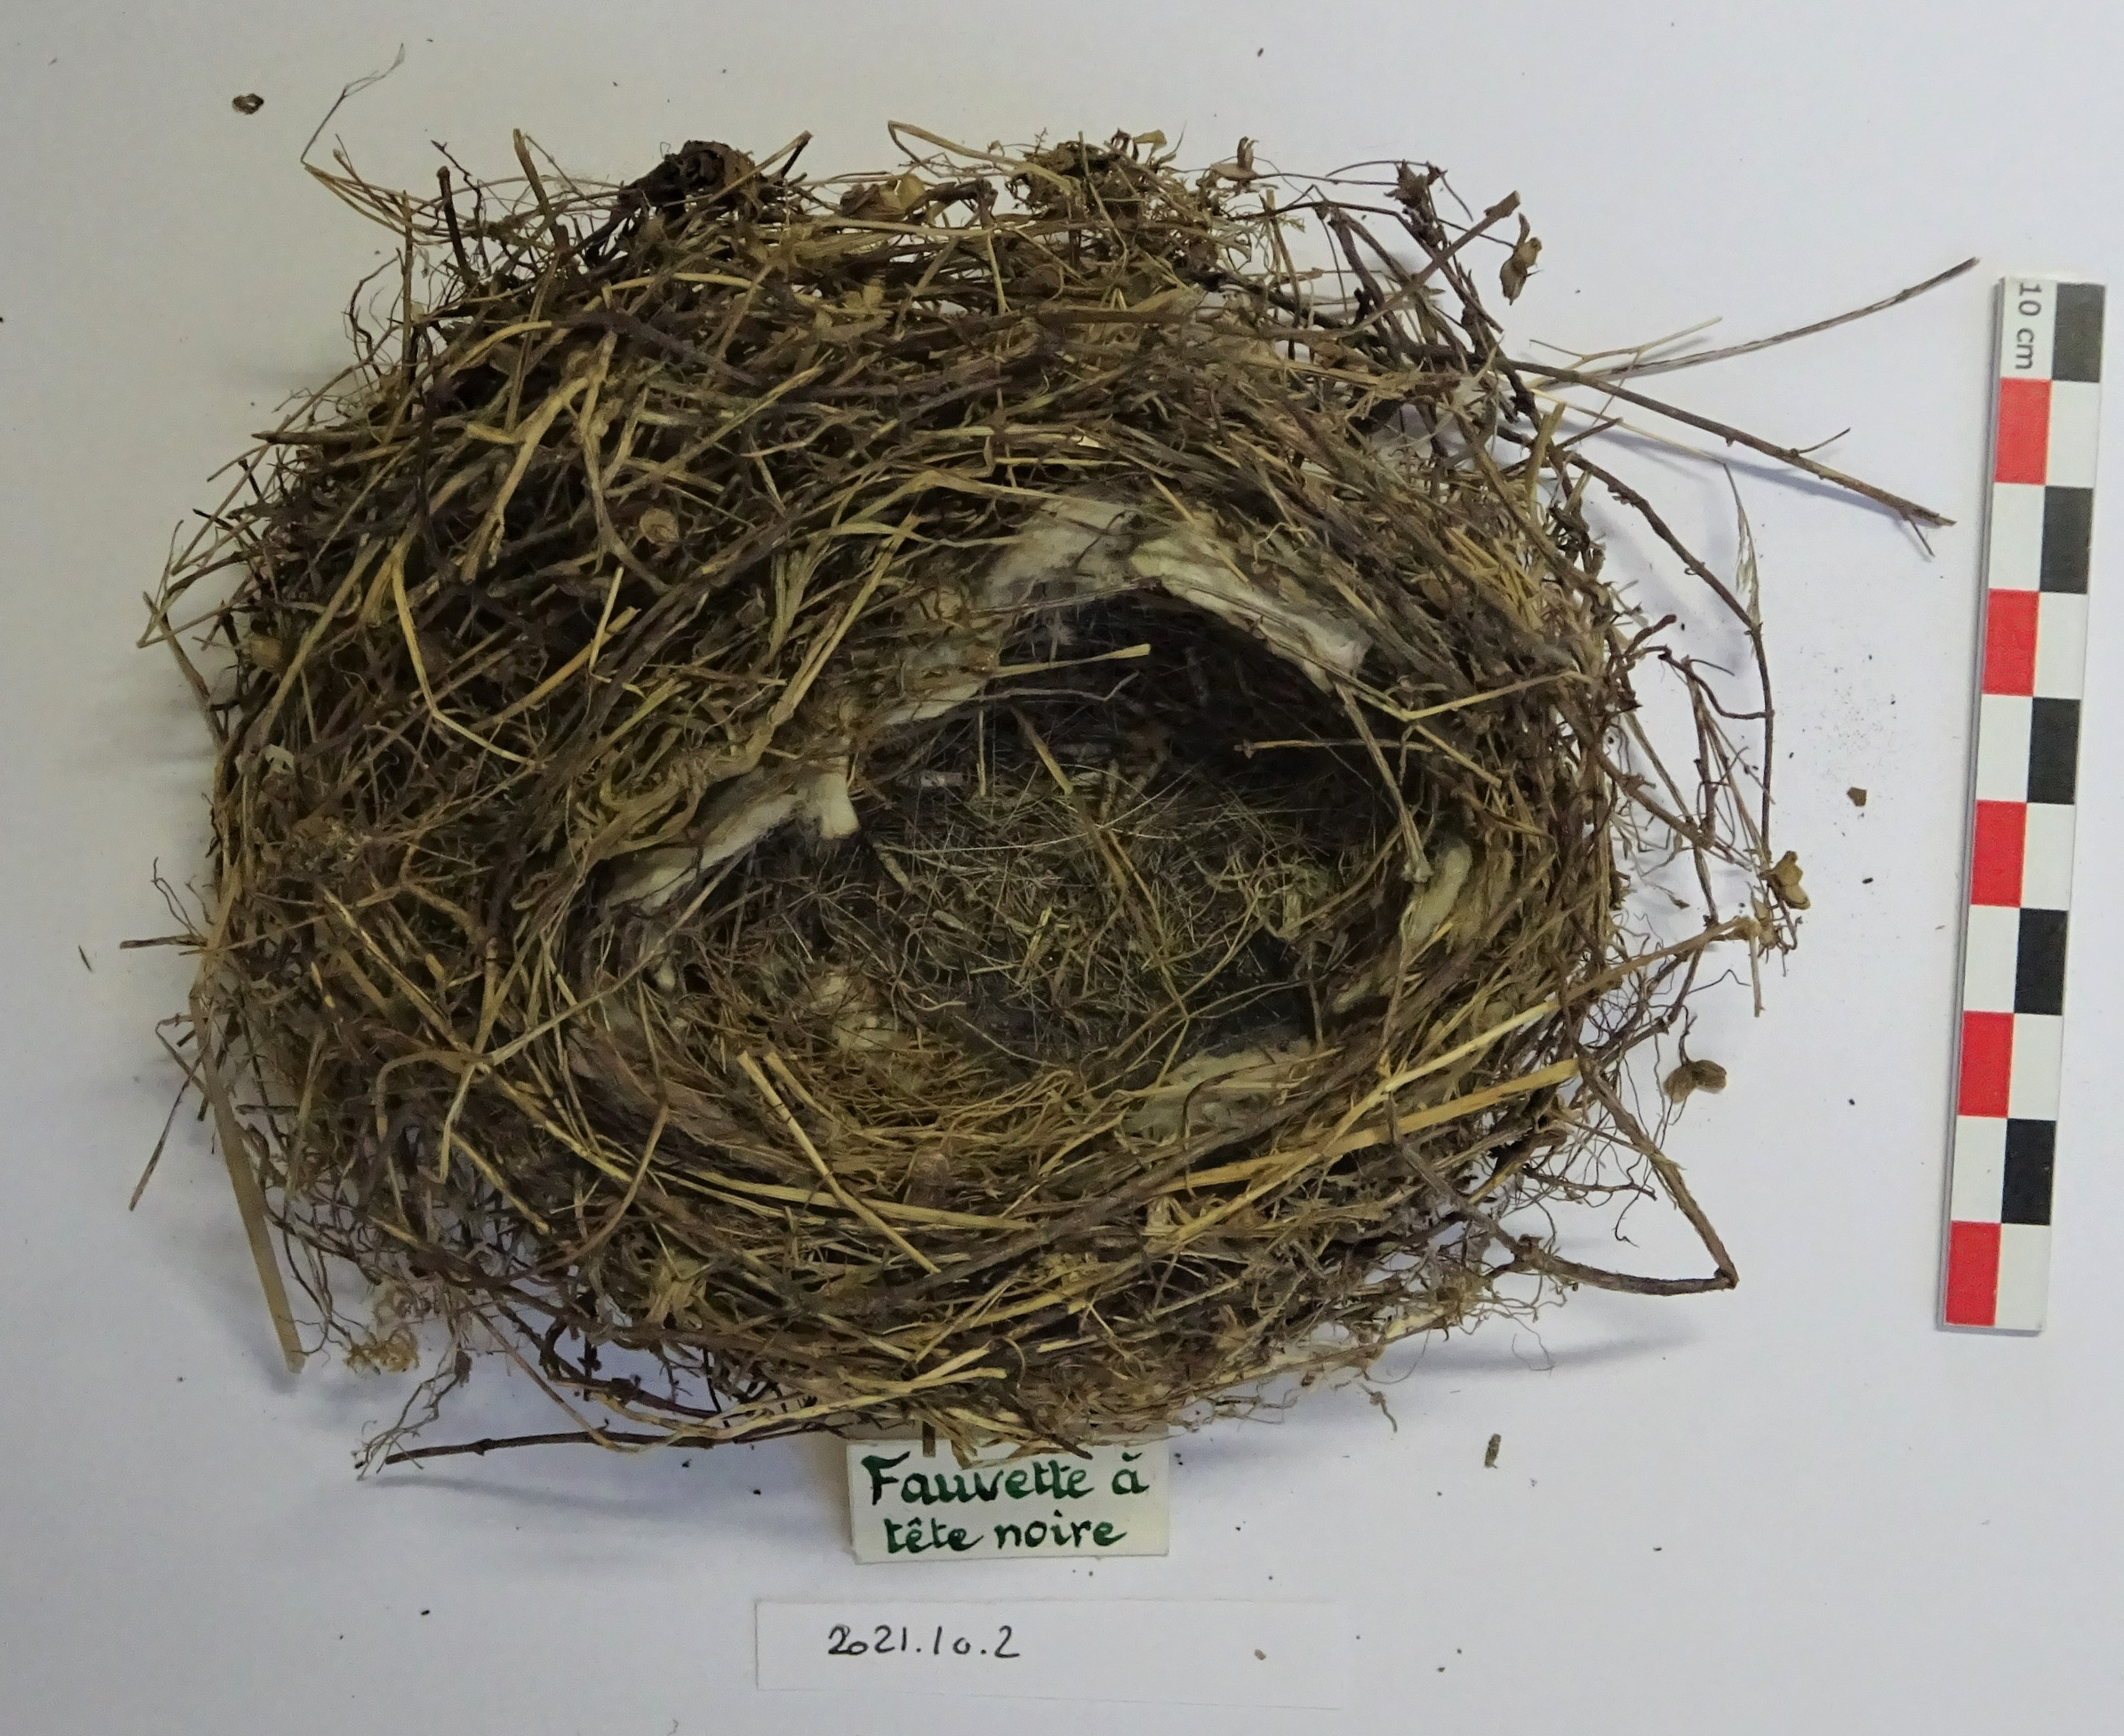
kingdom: Animalia
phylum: Chordata
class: Aves
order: Passeriformes
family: Sylviidae
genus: Sylvia
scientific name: Sylvia atricapilla
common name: Eurasian blackcap
